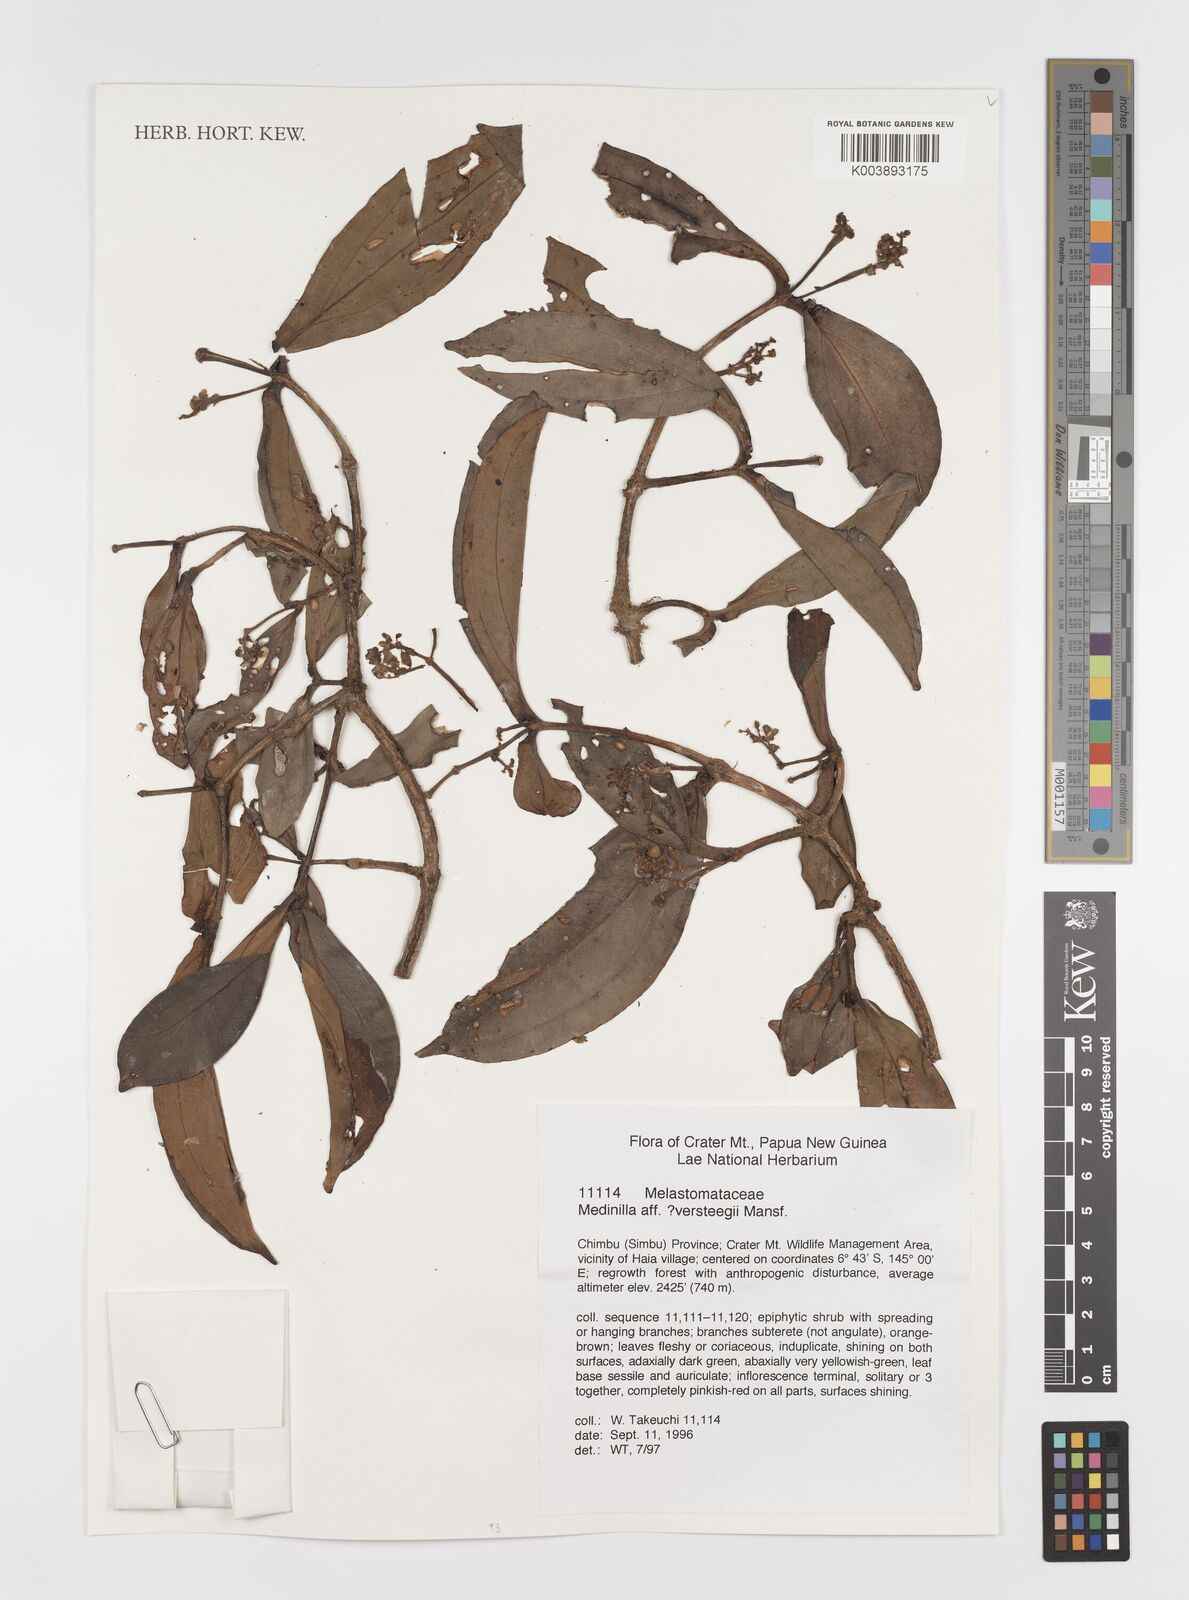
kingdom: Plantae
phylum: Tracheophyta
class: Magnoliopsida
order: Myrtales
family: Melastomataceae
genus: Medinilla
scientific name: Medinilla versteegii
